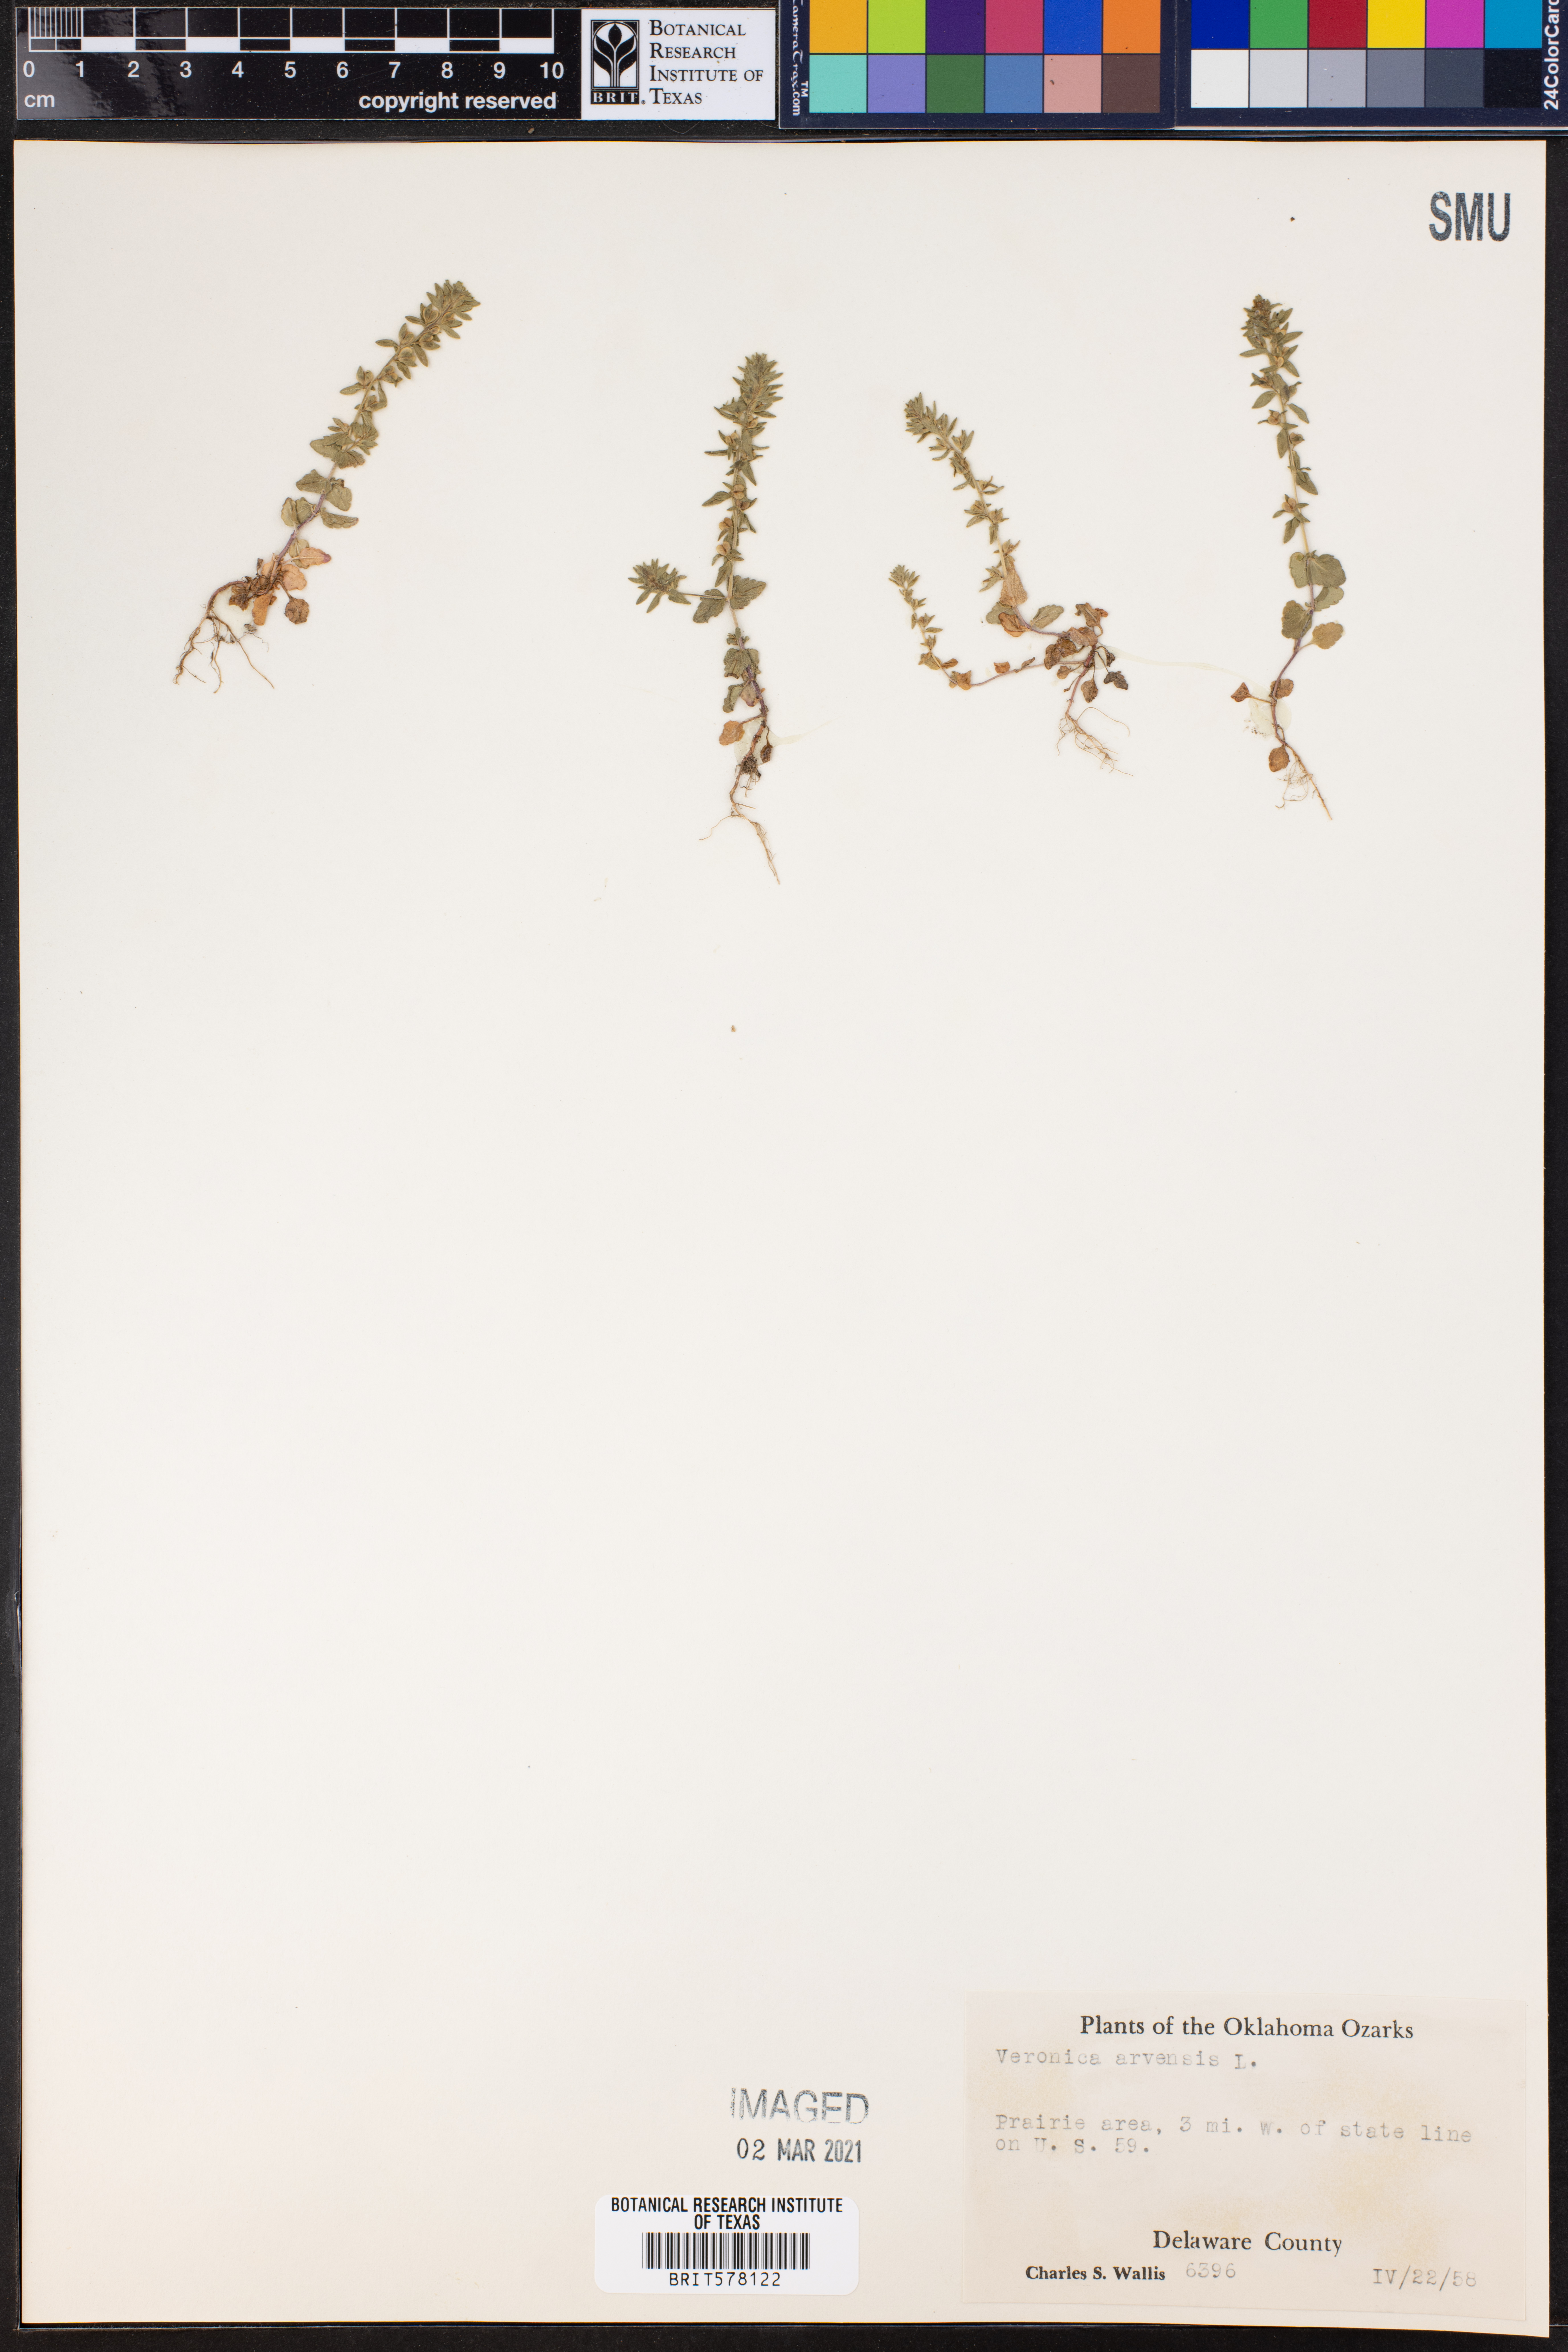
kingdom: Plantae
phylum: Tracheophyta
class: Magnoliopsida
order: Lamiales
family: Plantaginaceae
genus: Veronica
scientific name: Veronica arvensis
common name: Corn speedwell
